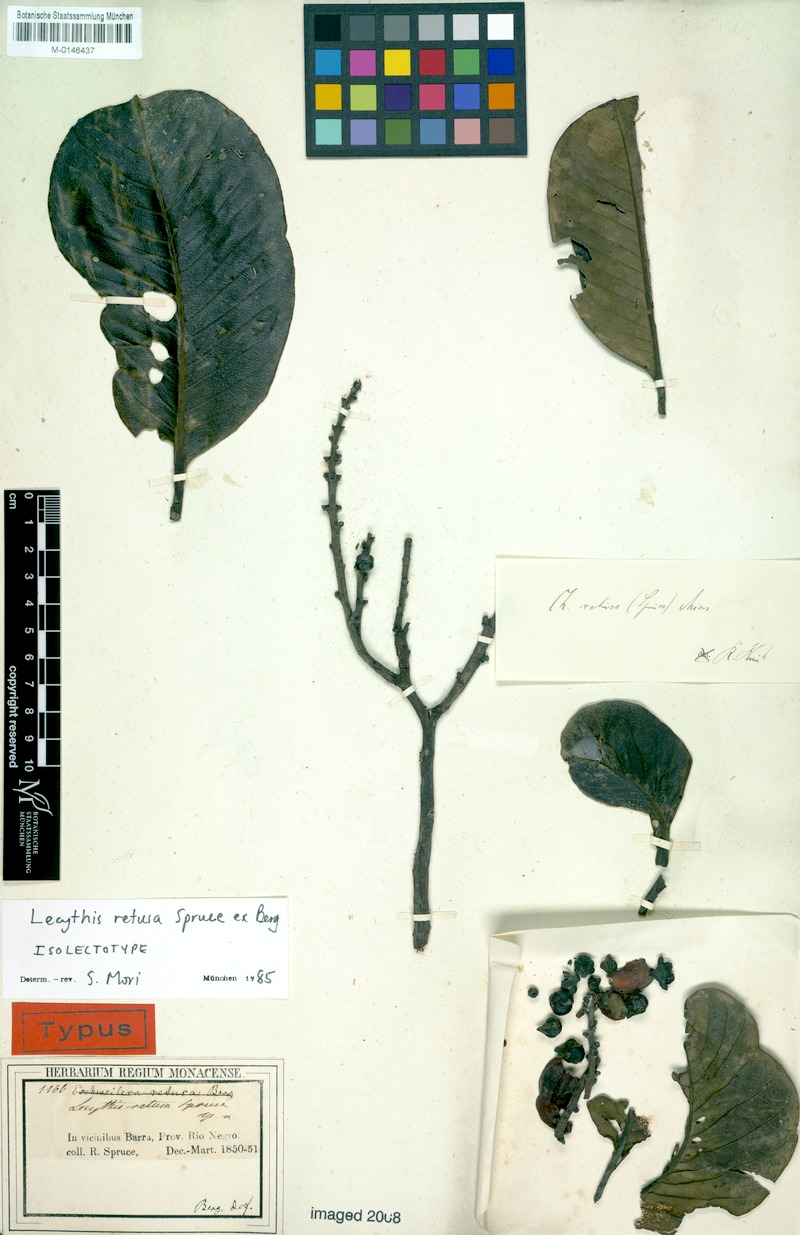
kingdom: Plantae
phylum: Tracheophyta
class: Magnoliopsida
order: Ericales
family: Lecythidaceae
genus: Lecythis
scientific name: Lecythis retusa
